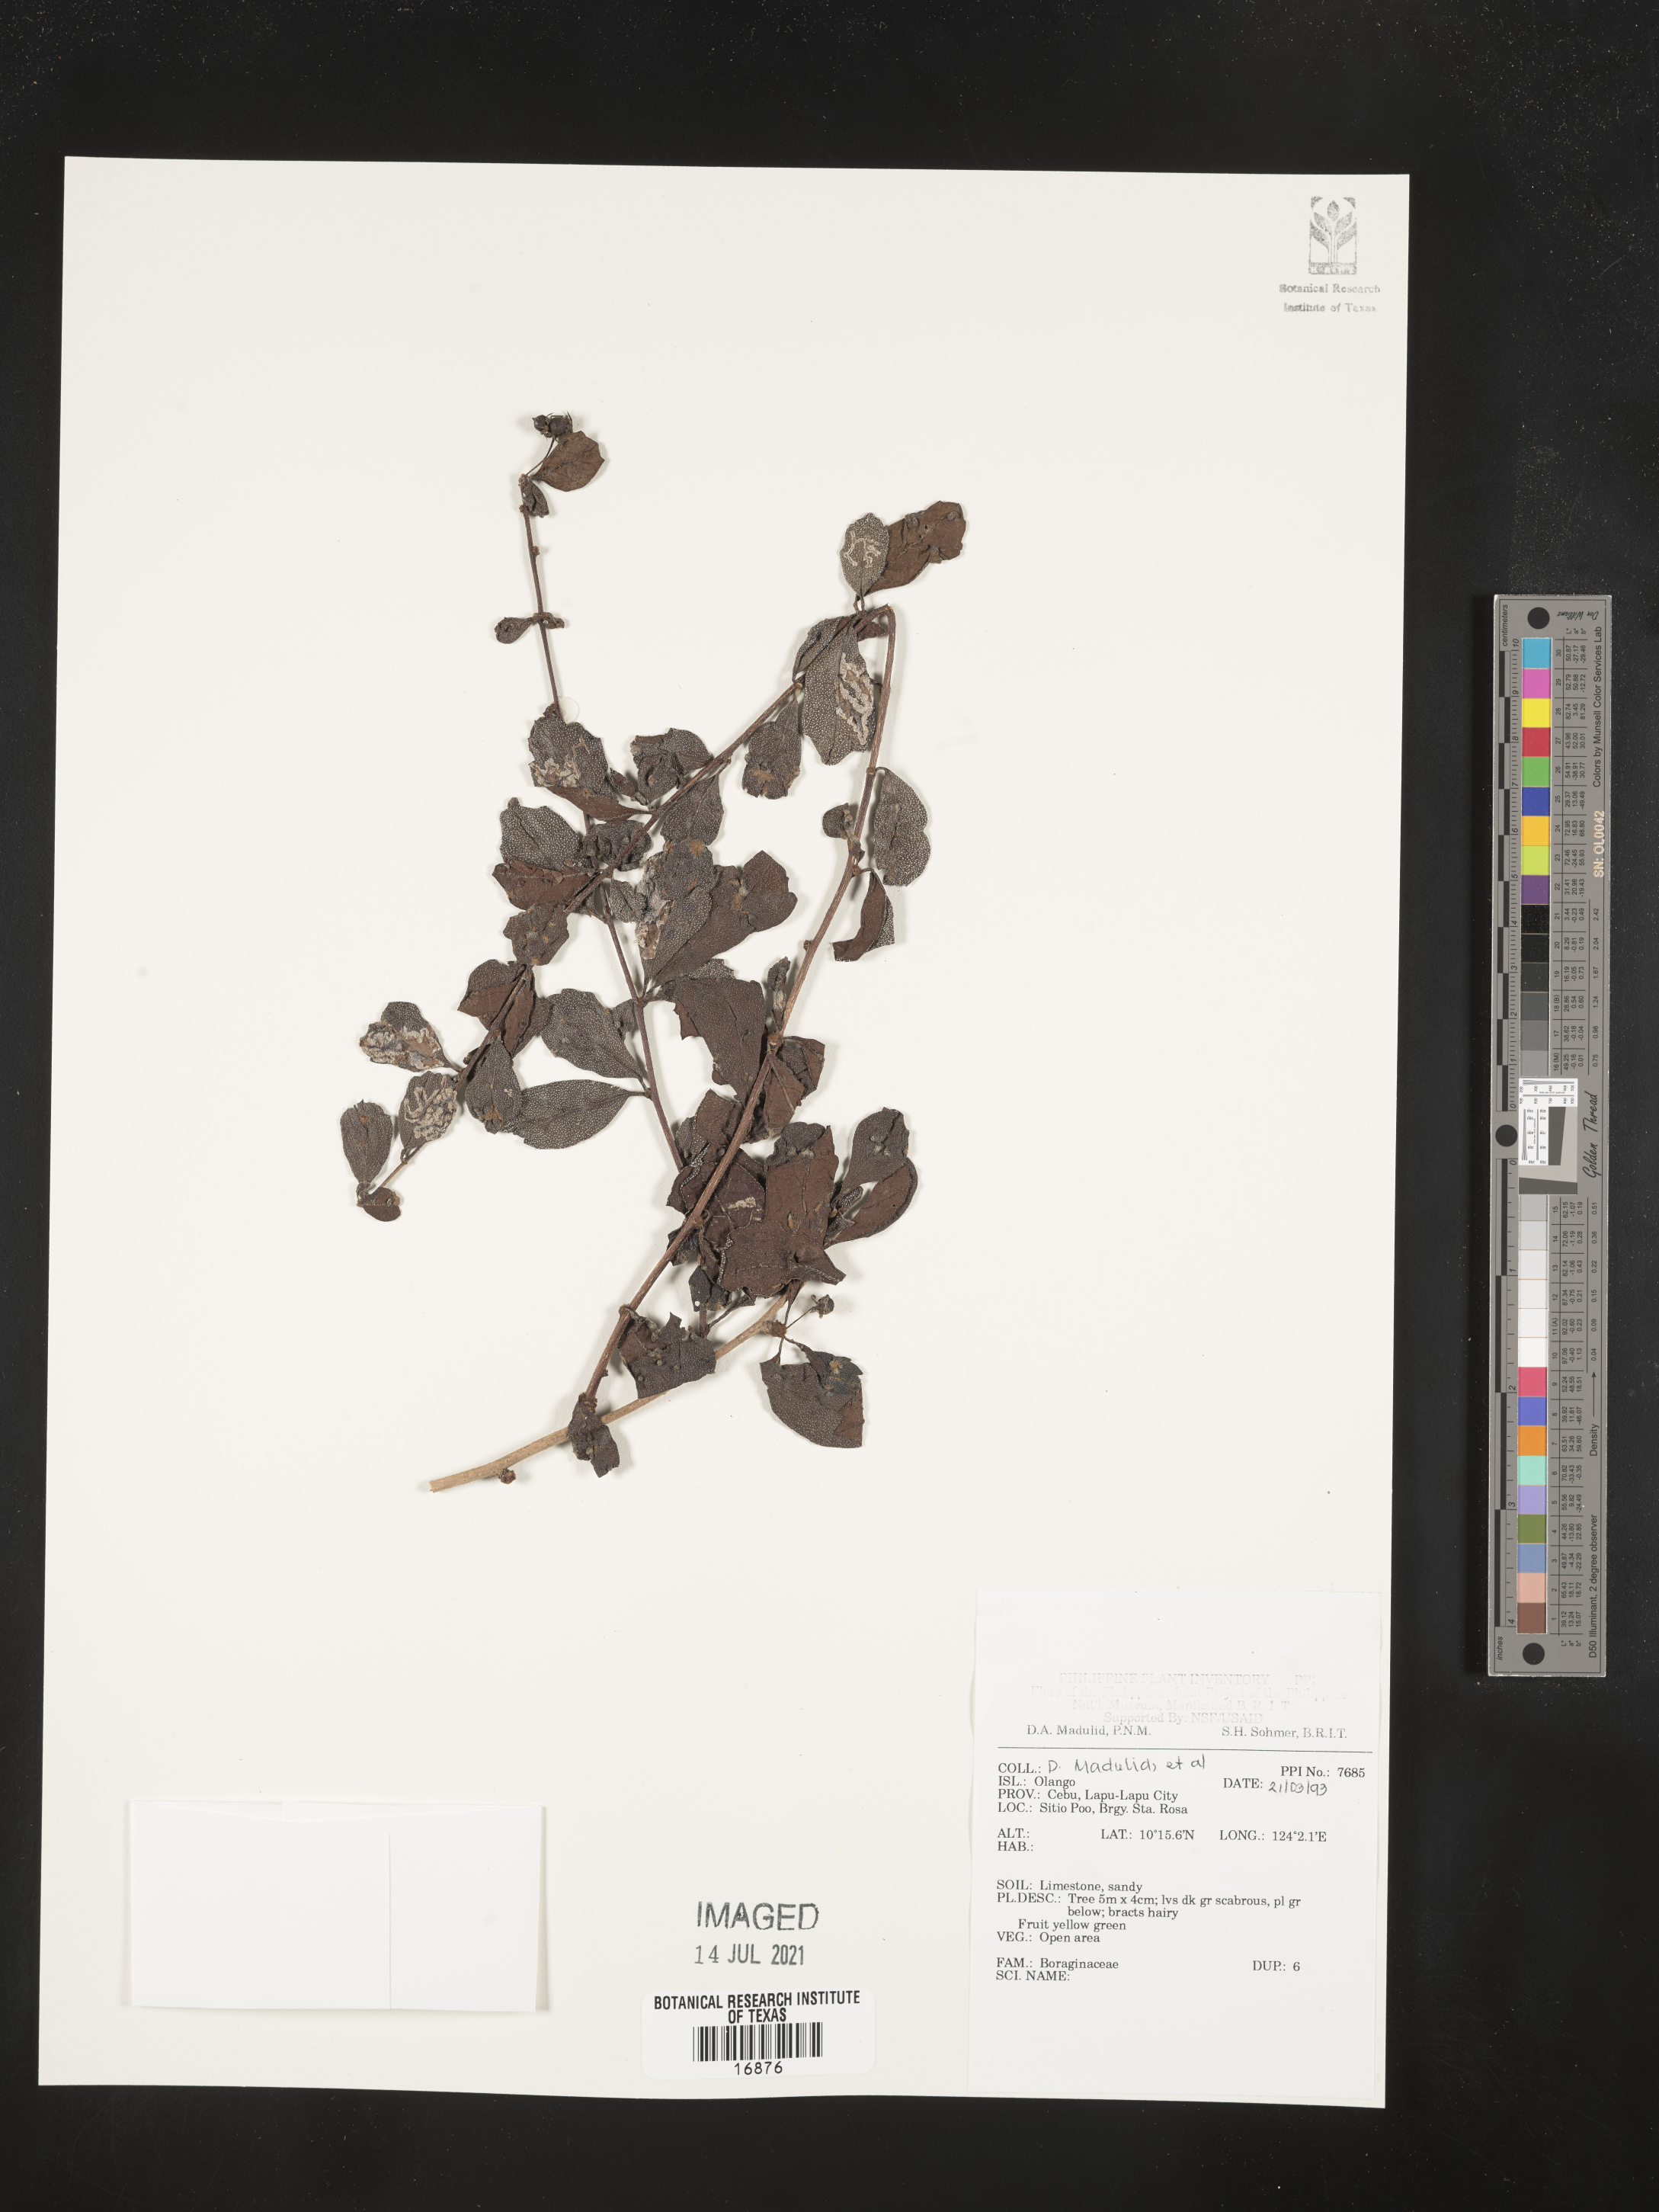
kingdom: Plantae
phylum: Tracheophyta
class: Magnoliopsida
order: Boraginales
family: Boraginaceae
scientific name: Boraginaceae
